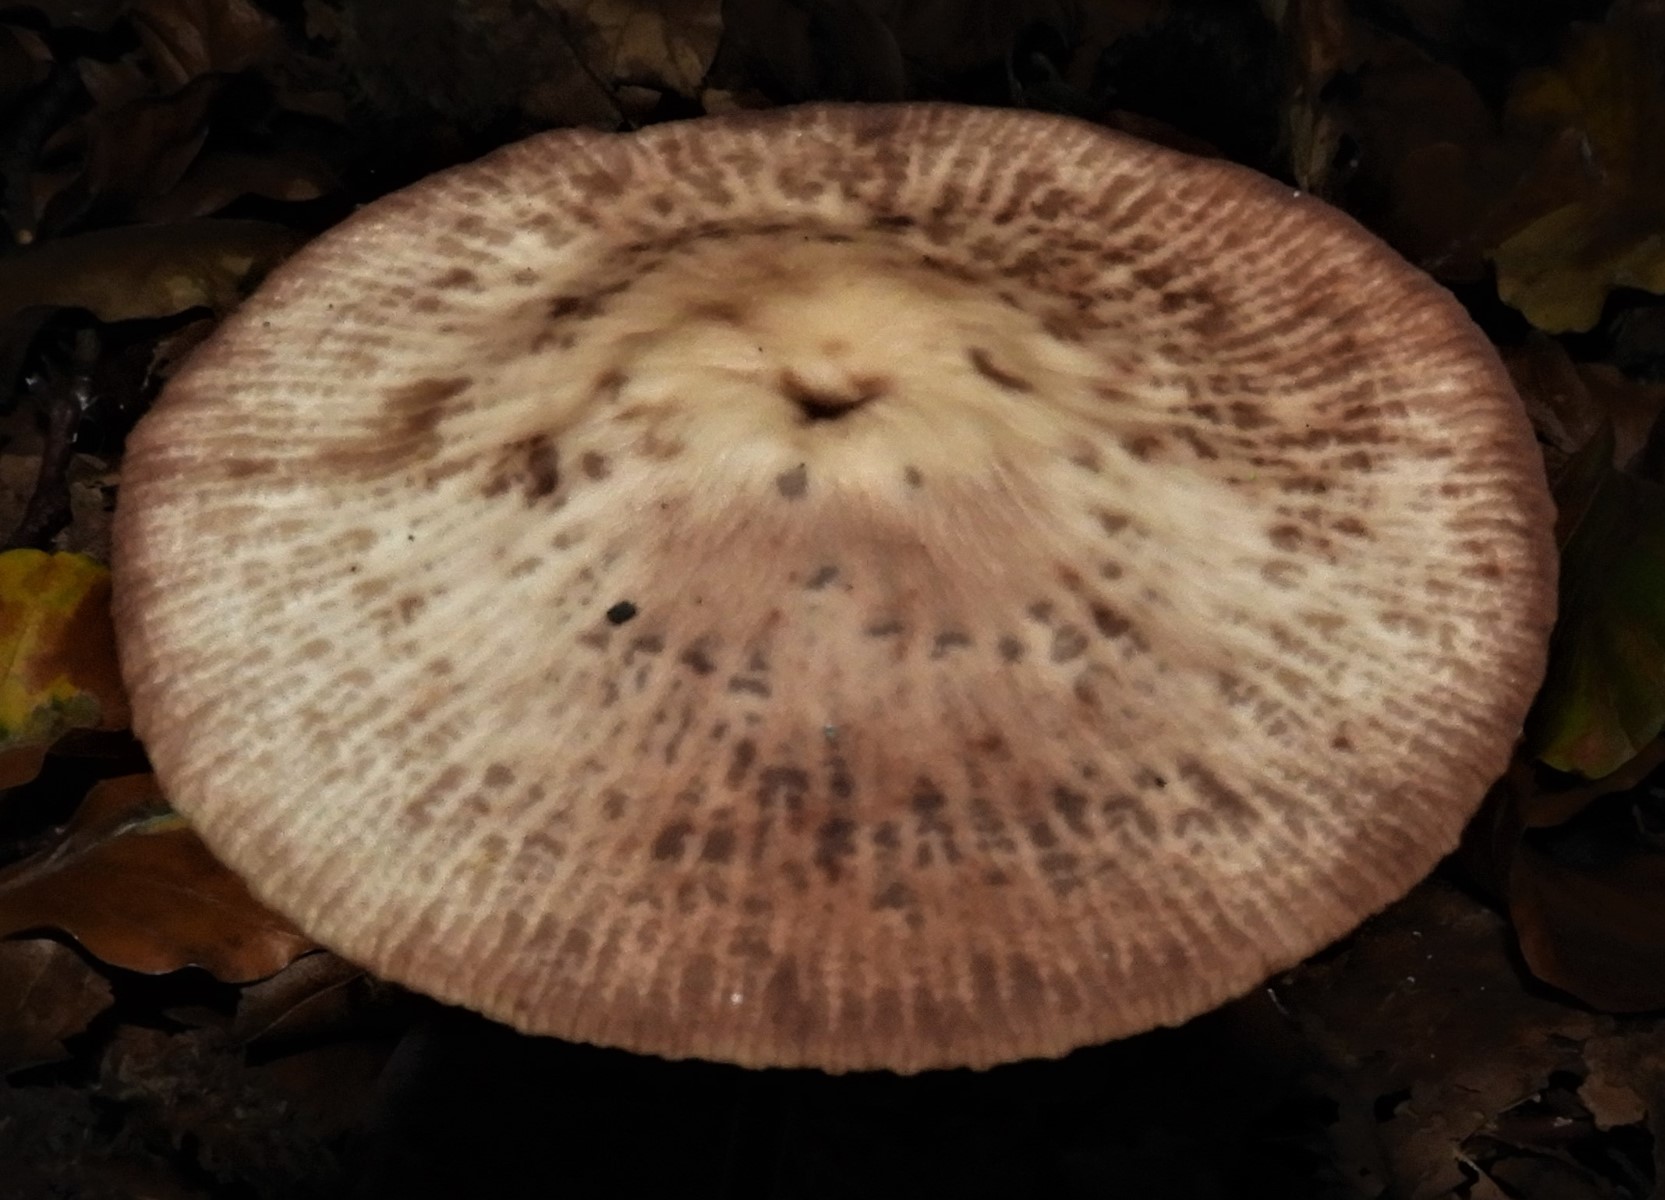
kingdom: Fungi
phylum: Basidiomycota
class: Agaricomycetes
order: Agaricales
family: Omphalotaceae
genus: Mycetinis
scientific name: Mycetinis alliaceus
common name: stor løghat
